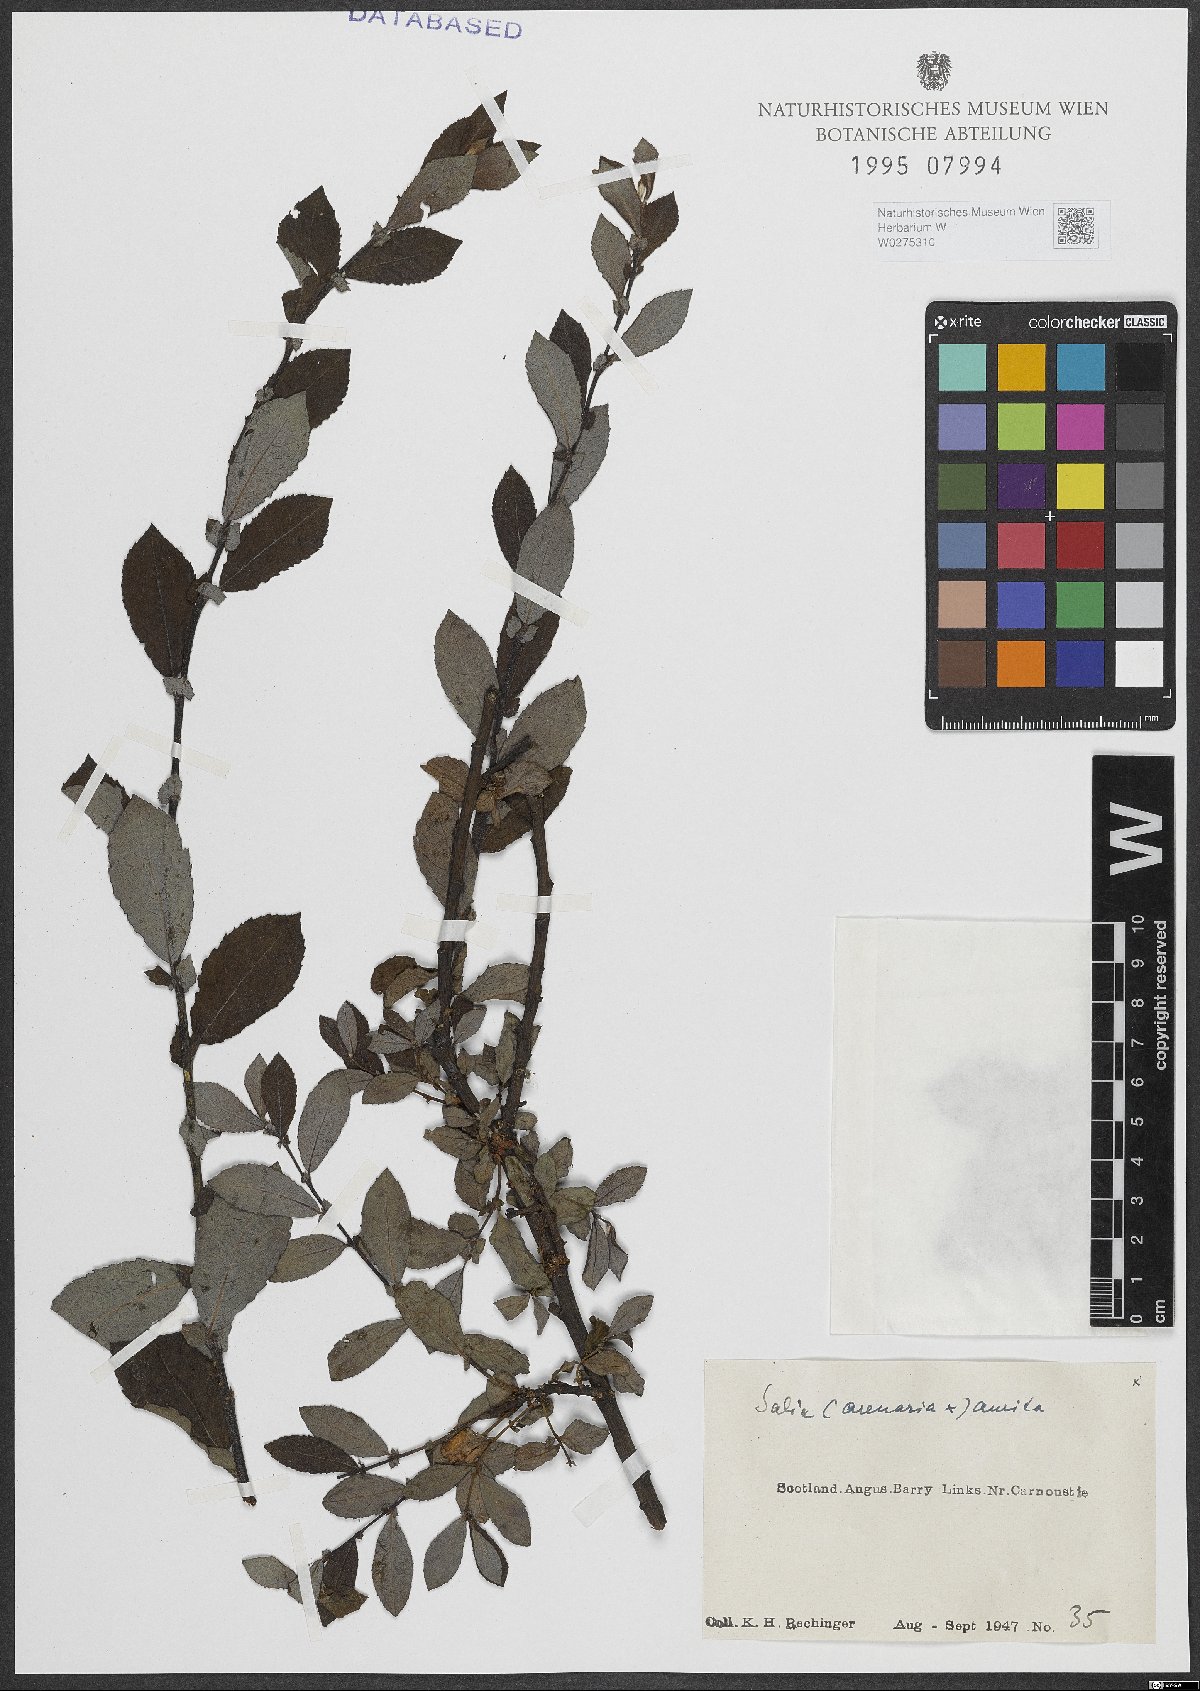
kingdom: Plantae
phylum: Tracheophyta
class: Magnoliopsida
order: Malpighiales
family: Salicaceae
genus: Salix
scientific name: Salix repens
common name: Creeping willow
